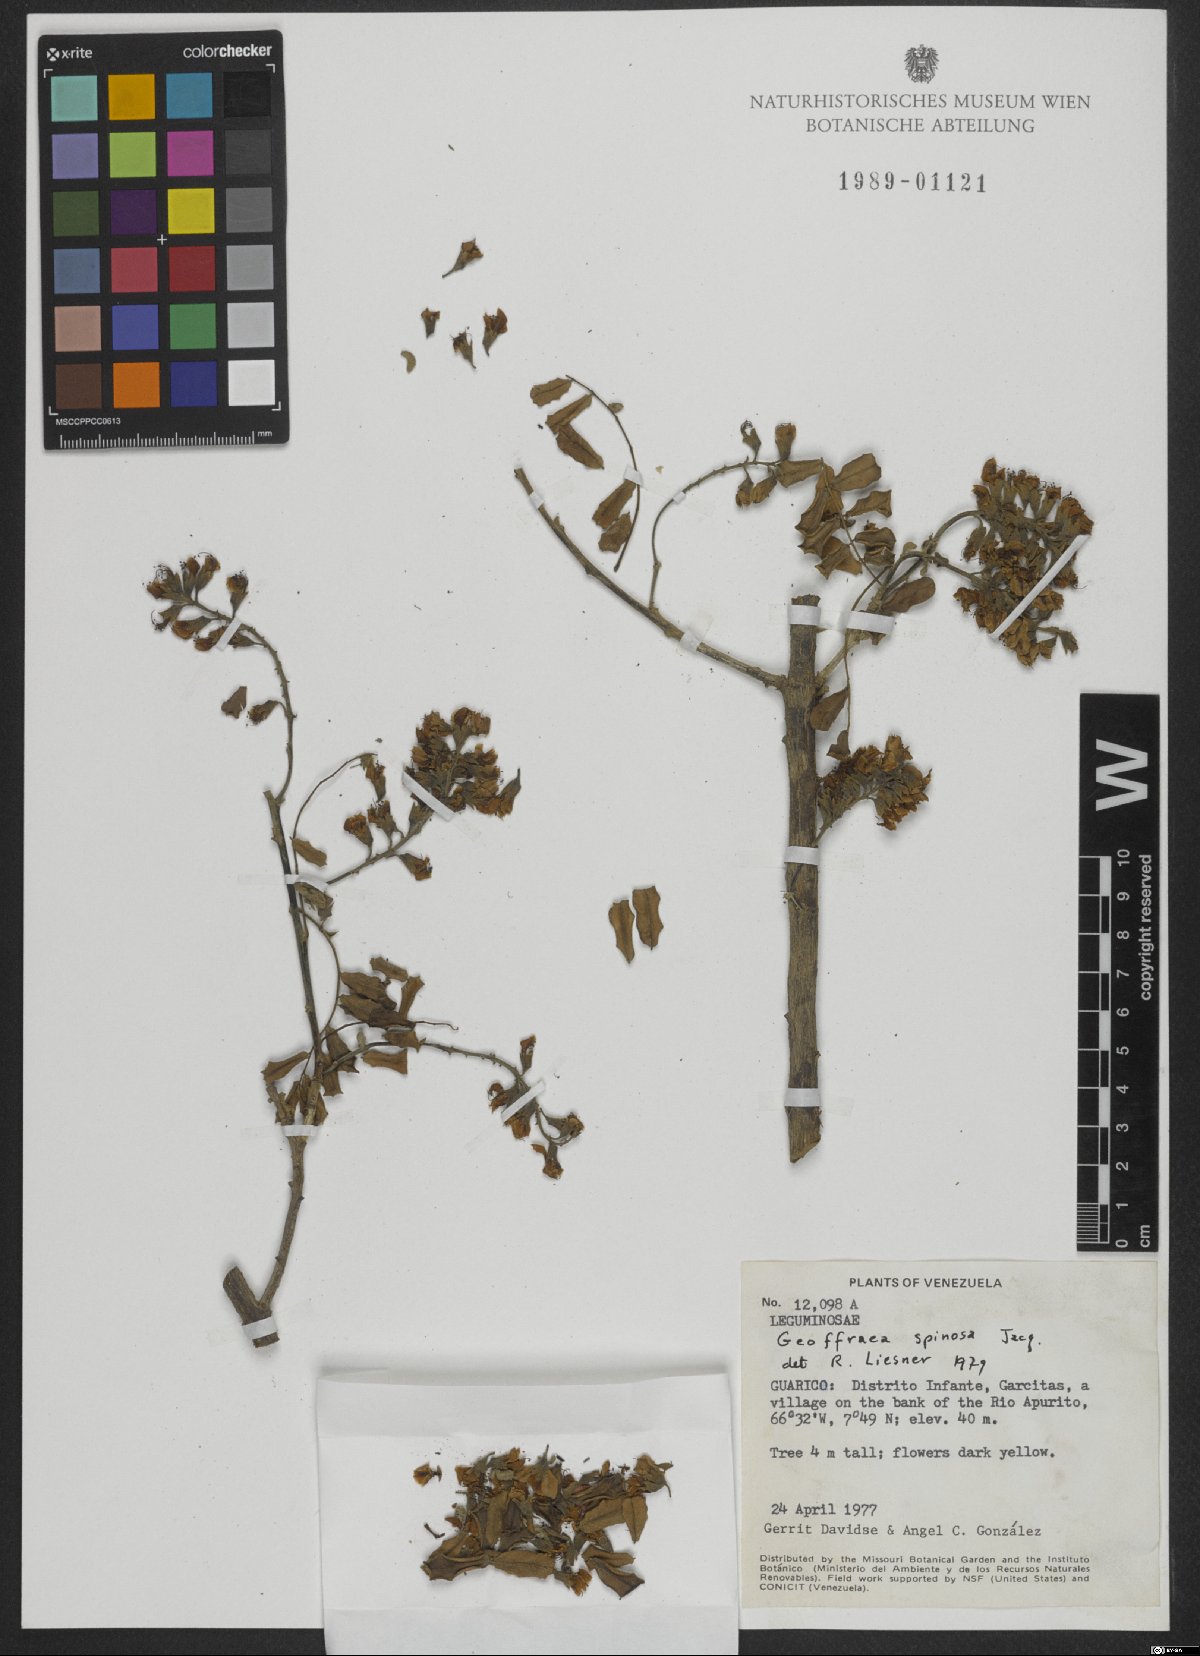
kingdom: Plantae
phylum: Tracheophyta
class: Magnoliopsida
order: Fabales
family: Fabaceae
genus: Geoffroea
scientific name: Geoffroea spinosa
